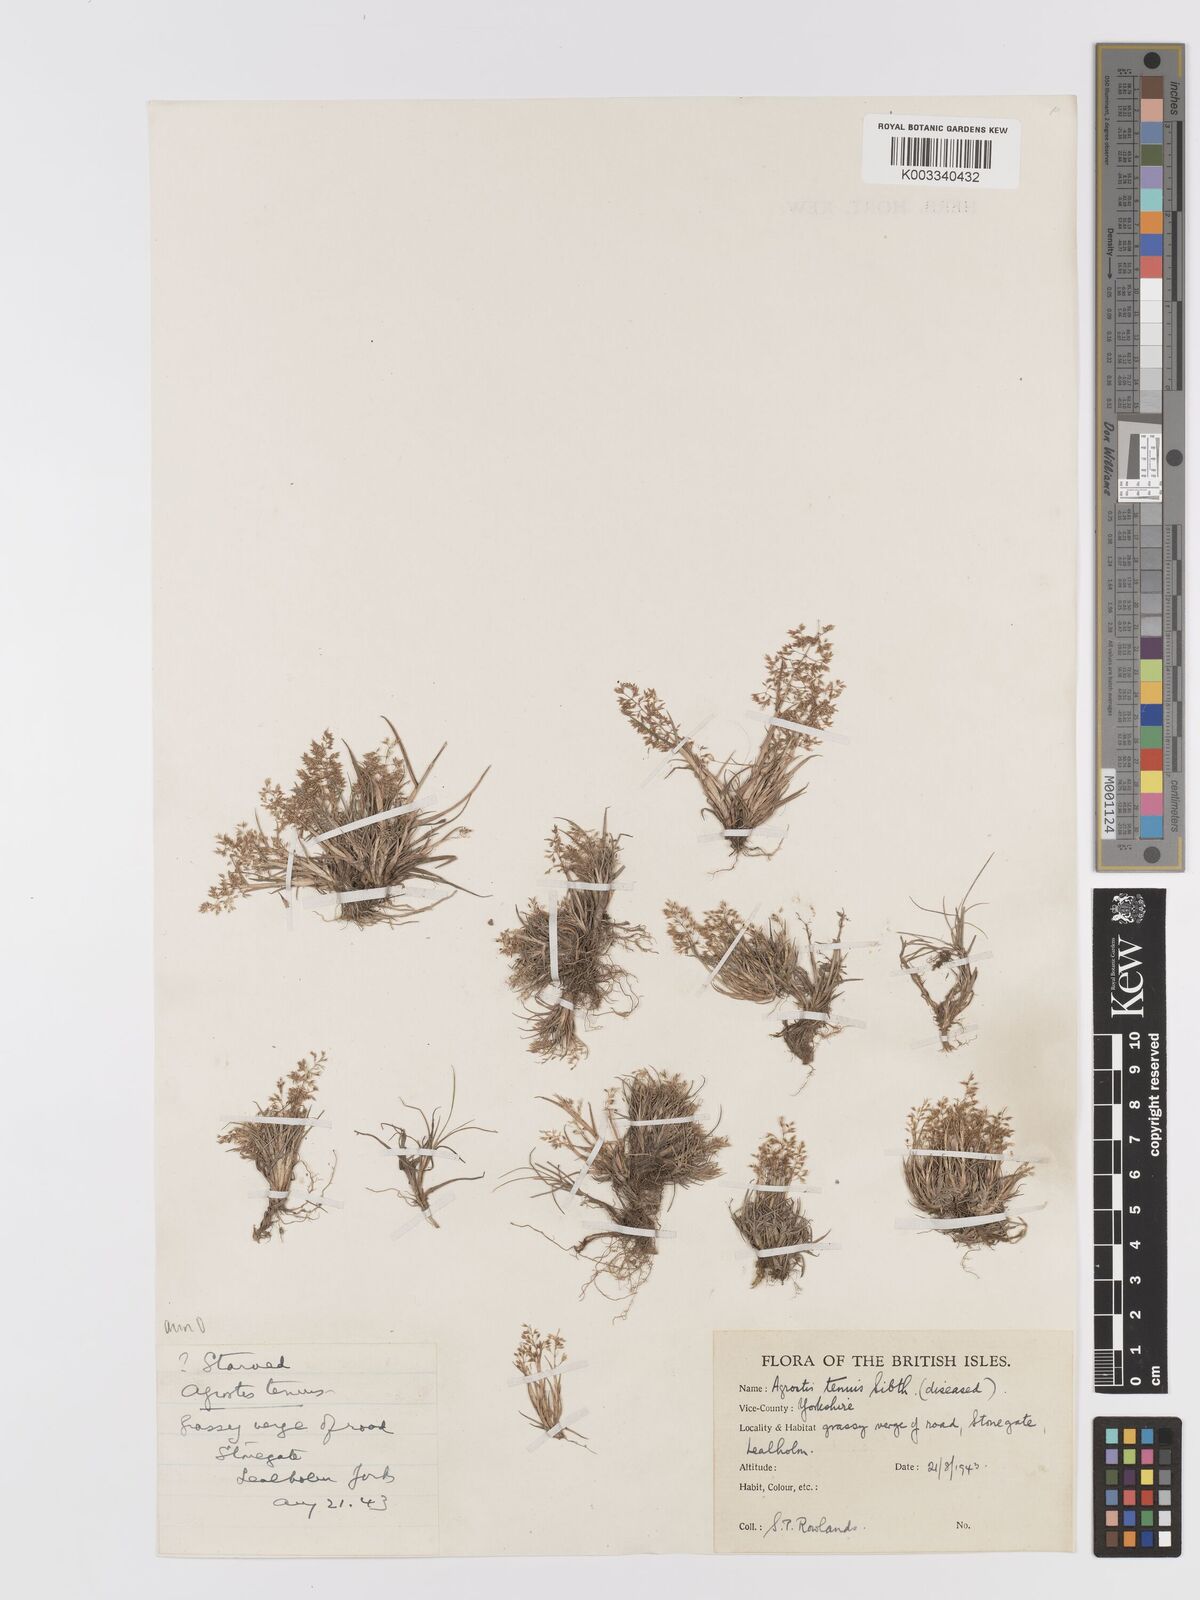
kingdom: Plantae
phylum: Tracheophyta
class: Liliopsida
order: Poales
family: Poaceae
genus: Agrostis
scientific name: Agrostis capillaris
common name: Colonial bentgrass
